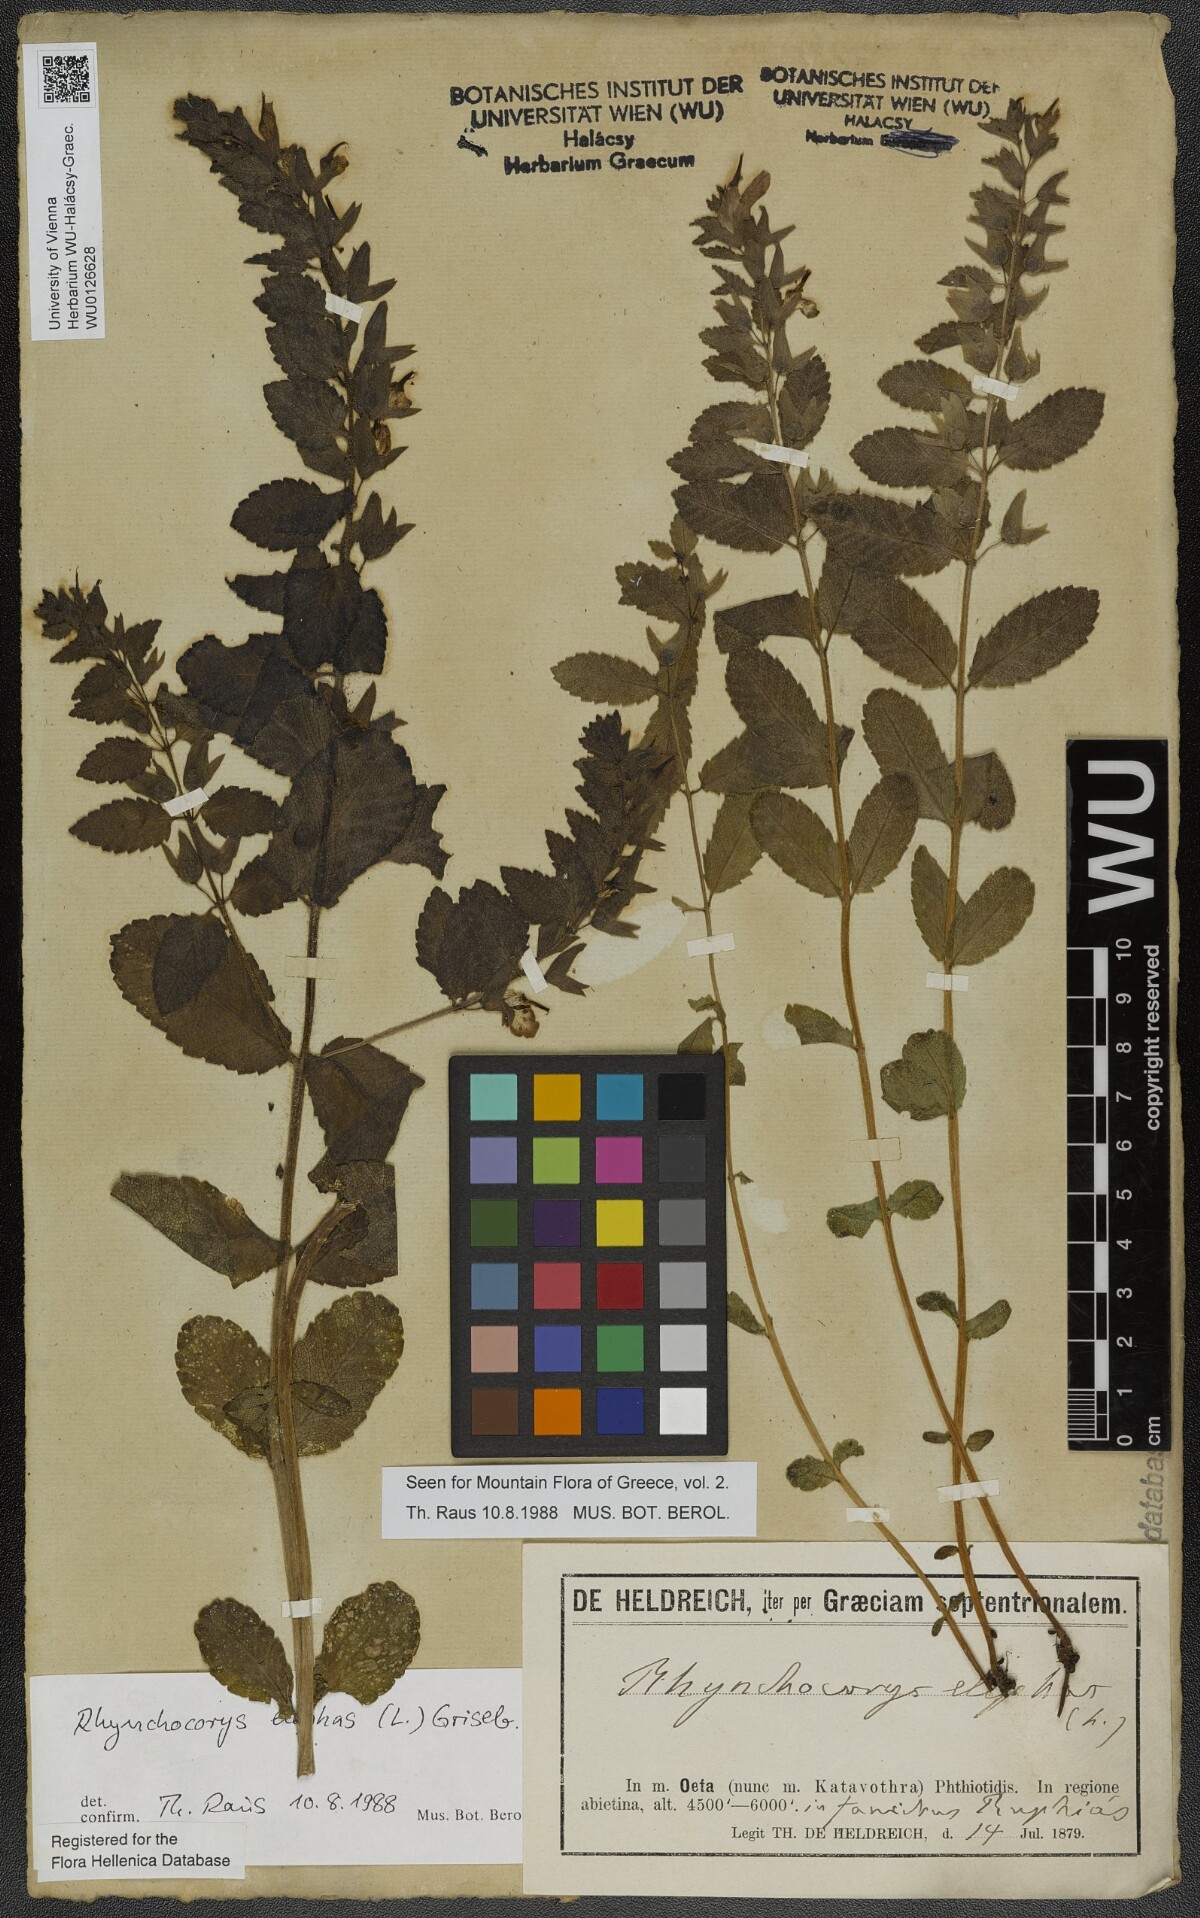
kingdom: Plantae
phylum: Tracheophyta
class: Magnoliopsida
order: Lamiales
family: Orobanchaceae
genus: Rhynchocorys
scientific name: Rhynchocorys elephas
